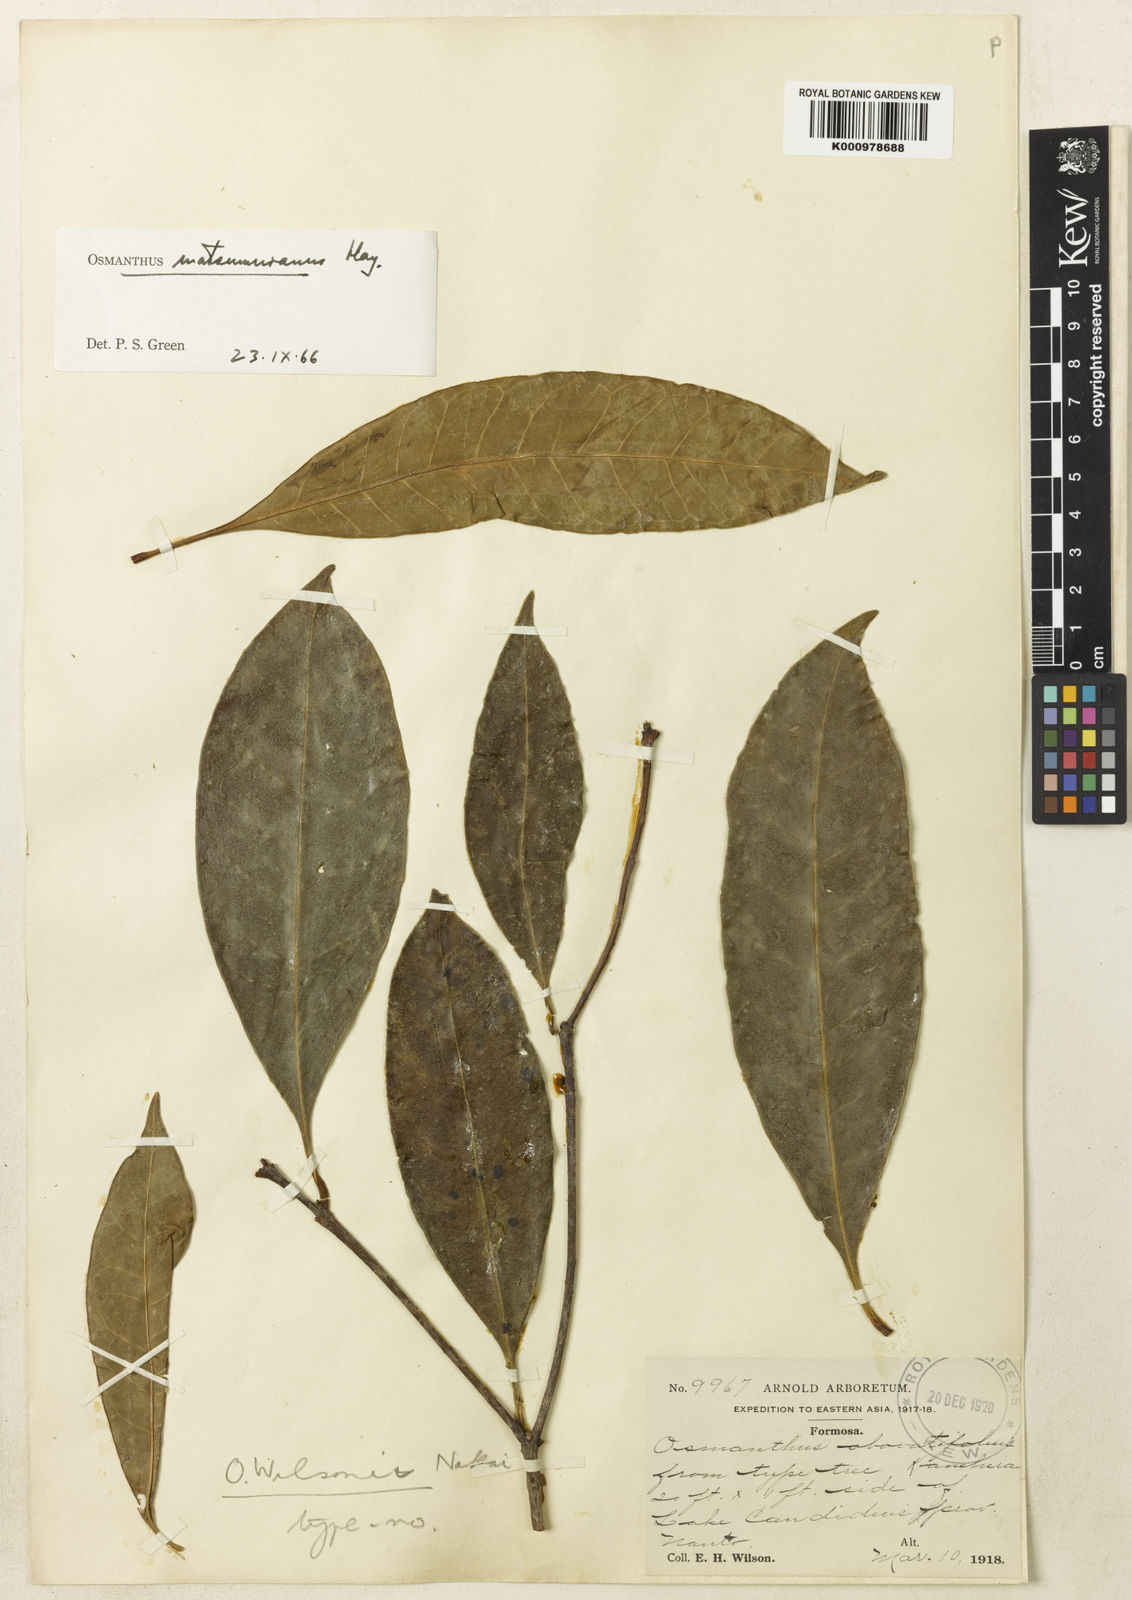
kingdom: Plantae
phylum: Tracheophyta
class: Magnoliopsida
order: Lamiales
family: Oleaceae
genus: Chengiodendron
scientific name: Chengiodendron matsumuranum
